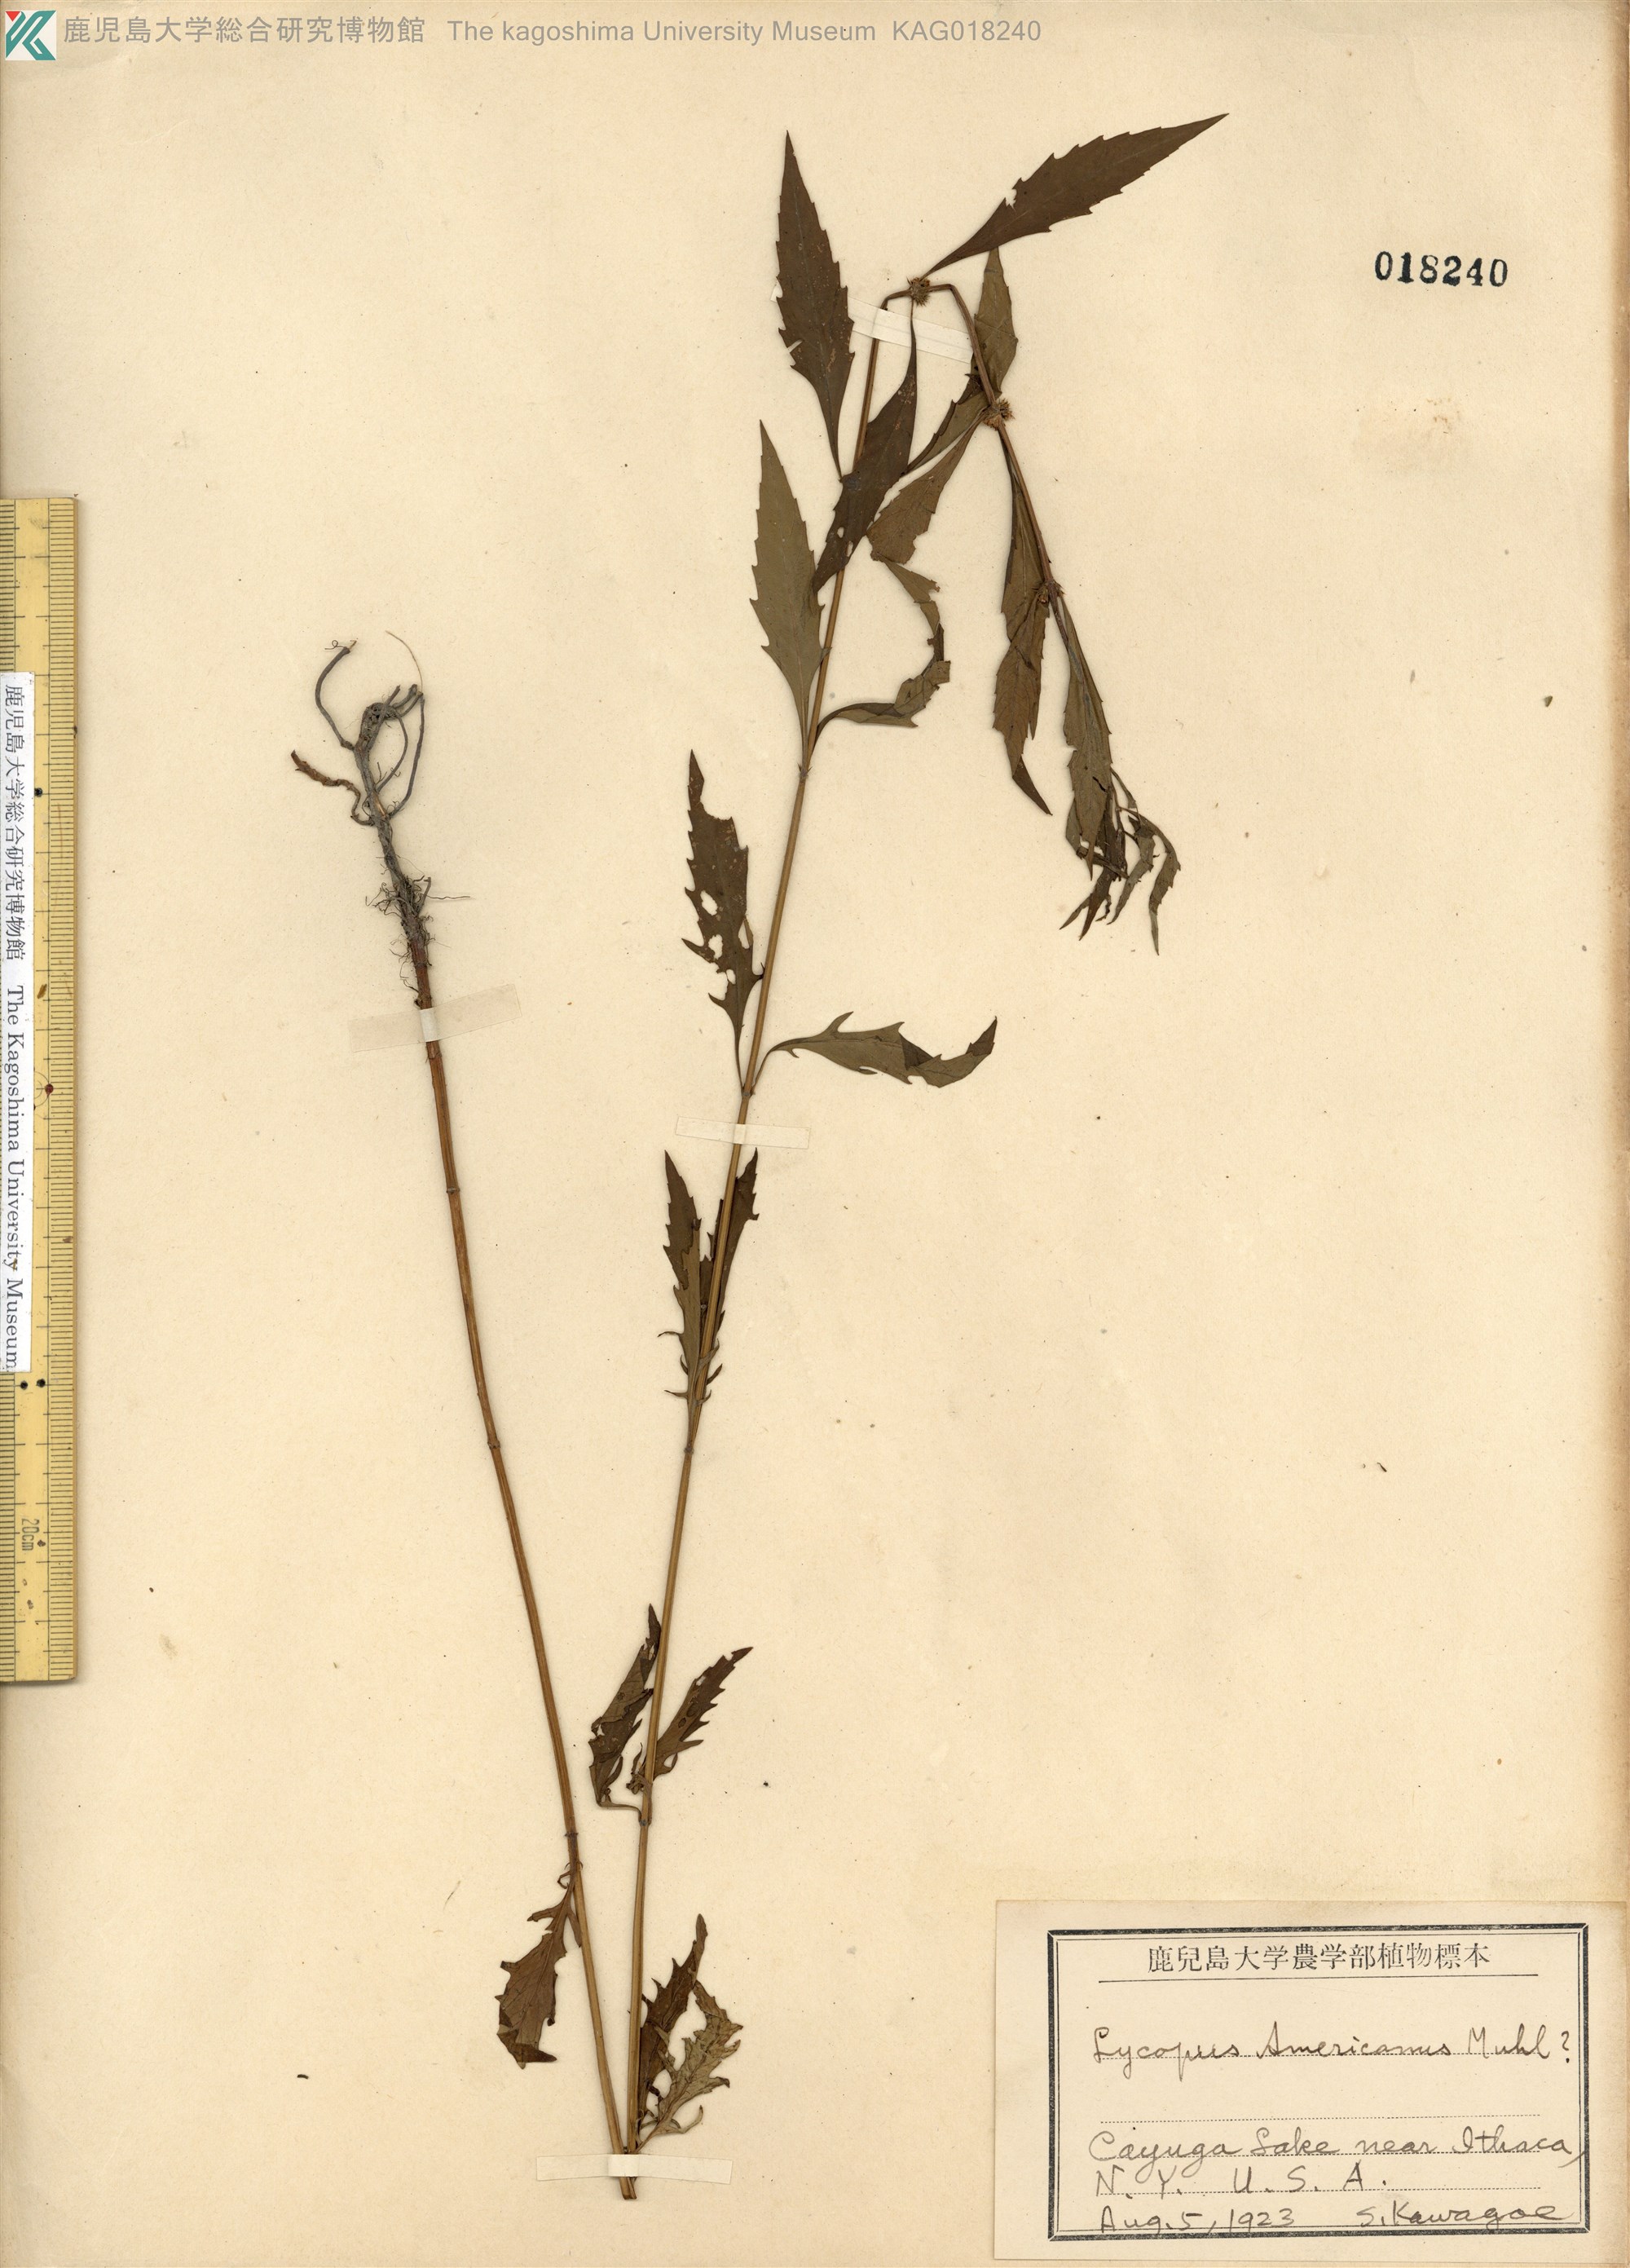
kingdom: Plantae
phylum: Tracheophyta
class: Magnoliopsida
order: Lamiales
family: Lamiaceae
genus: Lycopus
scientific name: Lycopus americanus
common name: American bugleweed
